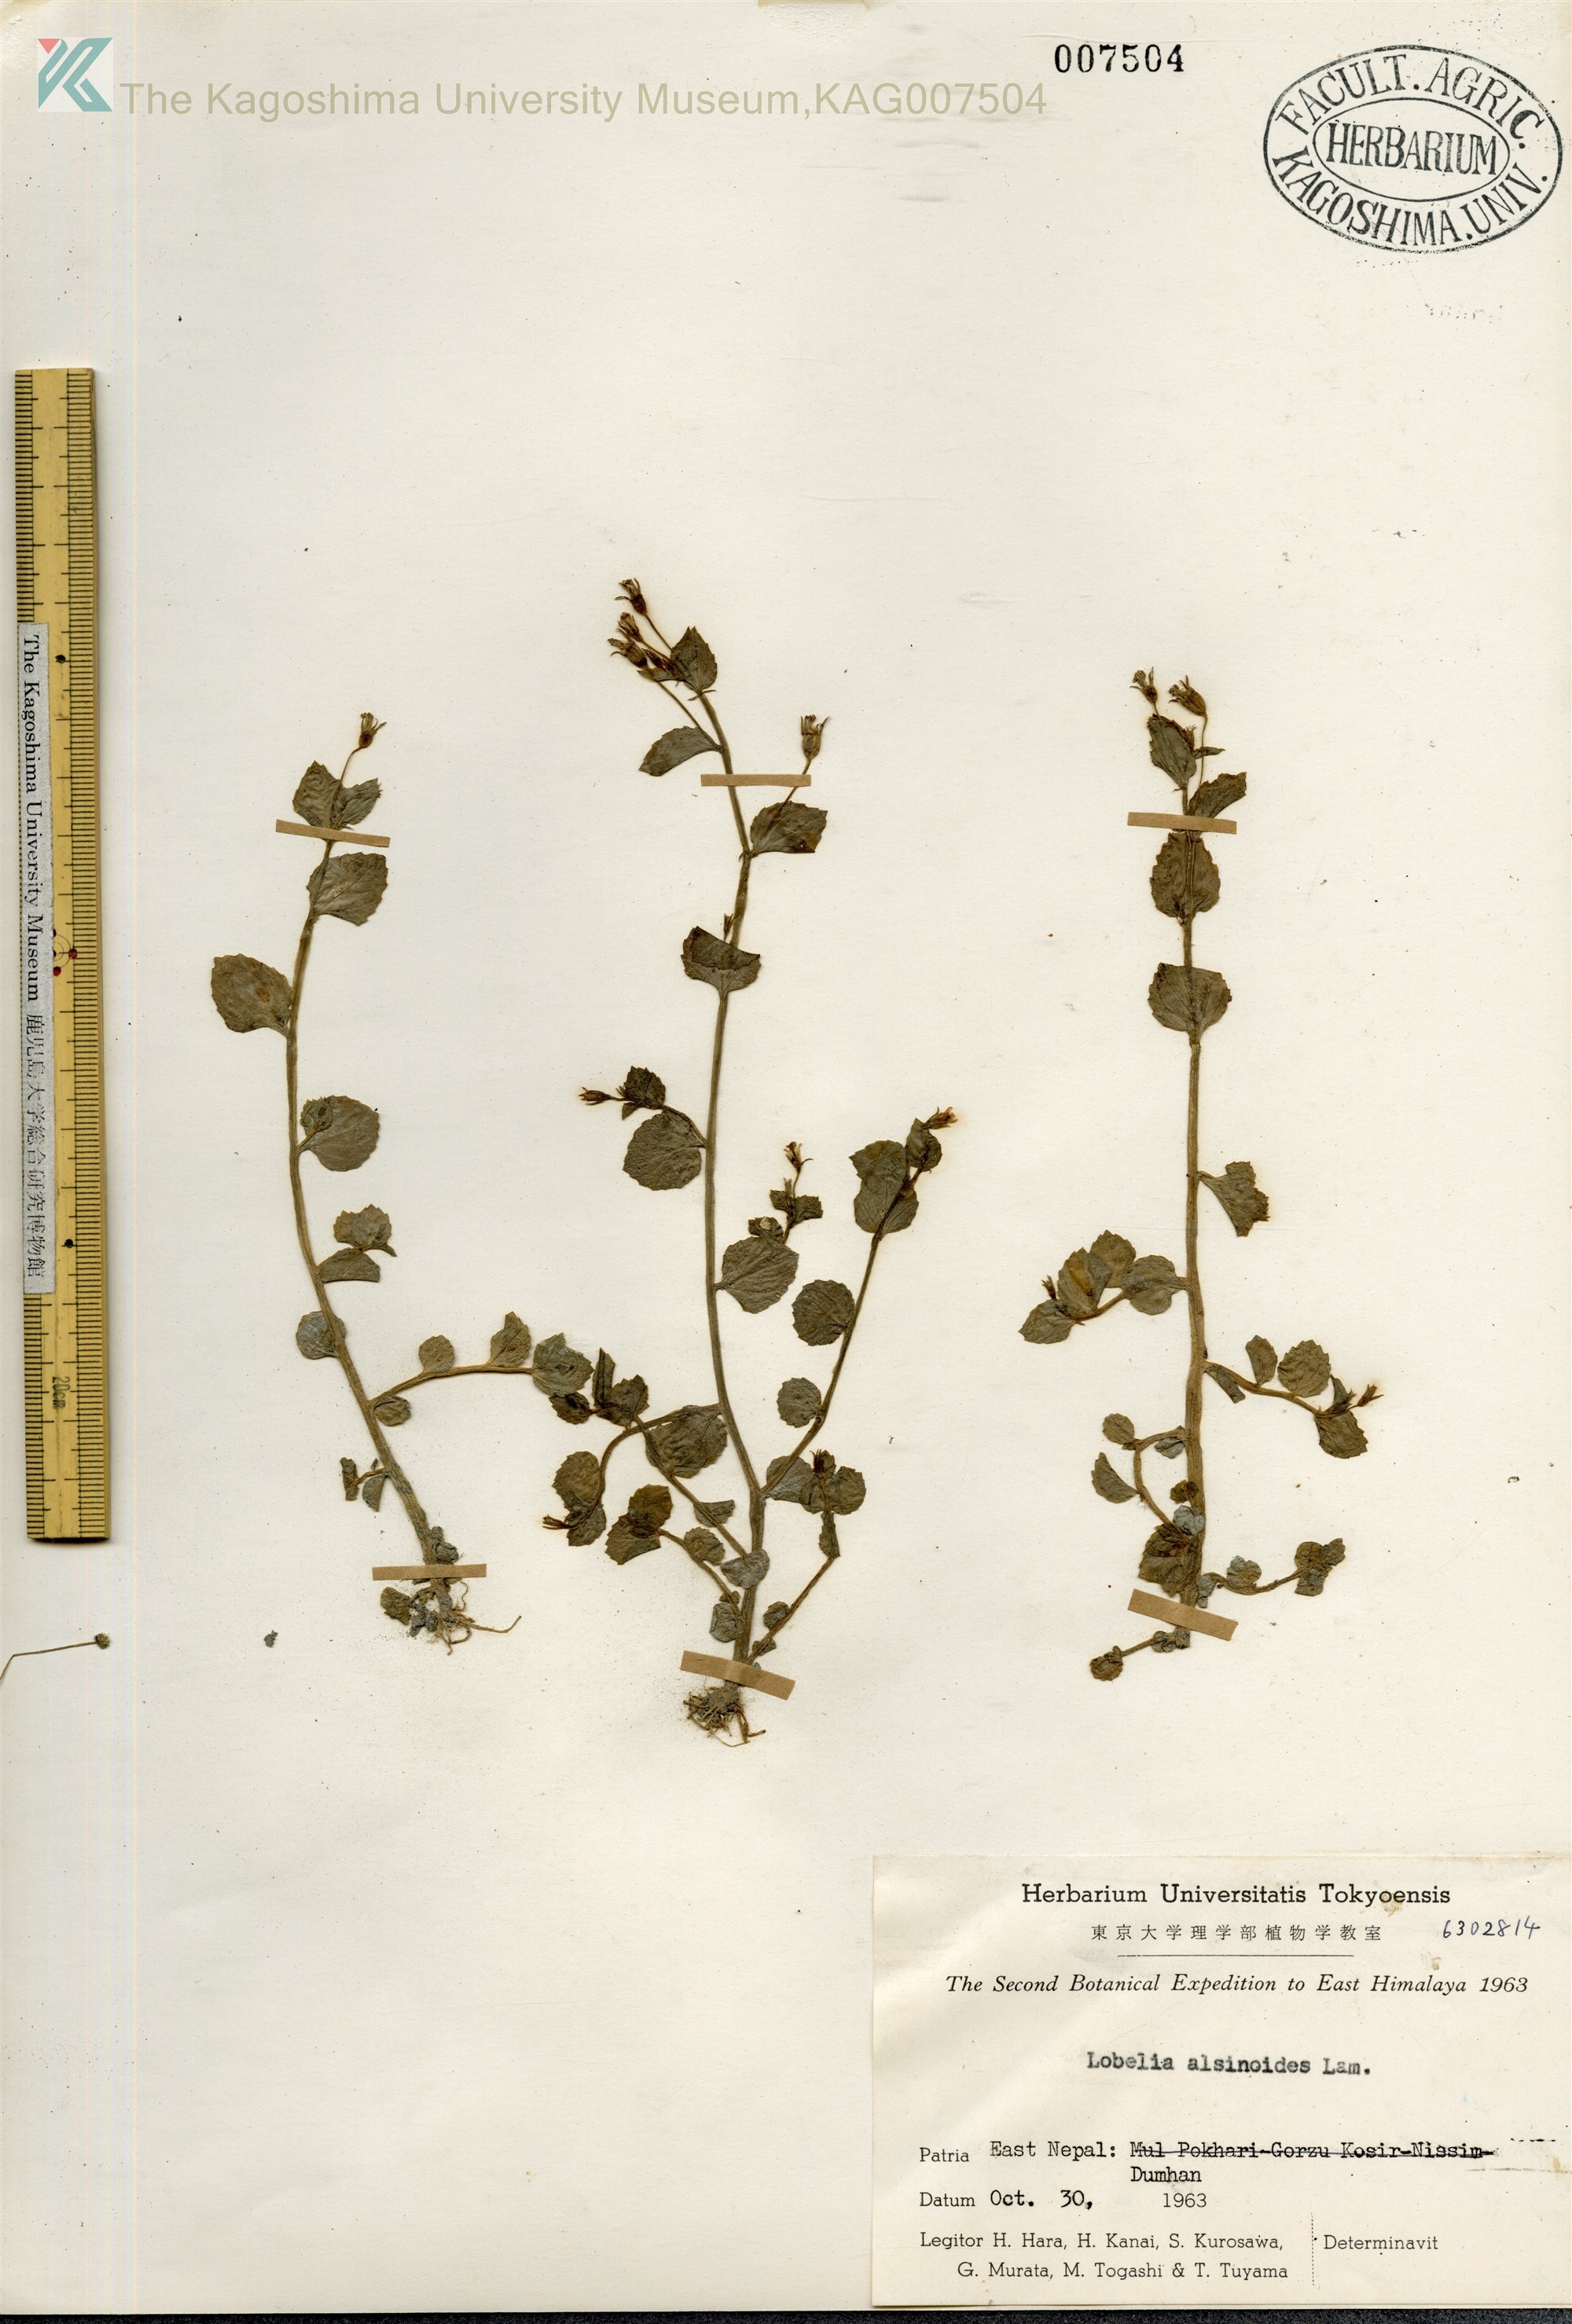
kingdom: Plantae
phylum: Tracheophyta
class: Magnoliopsida
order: Asterales
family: Campanulaceae
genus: Lobelia
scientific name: Lobelia alsinoides
